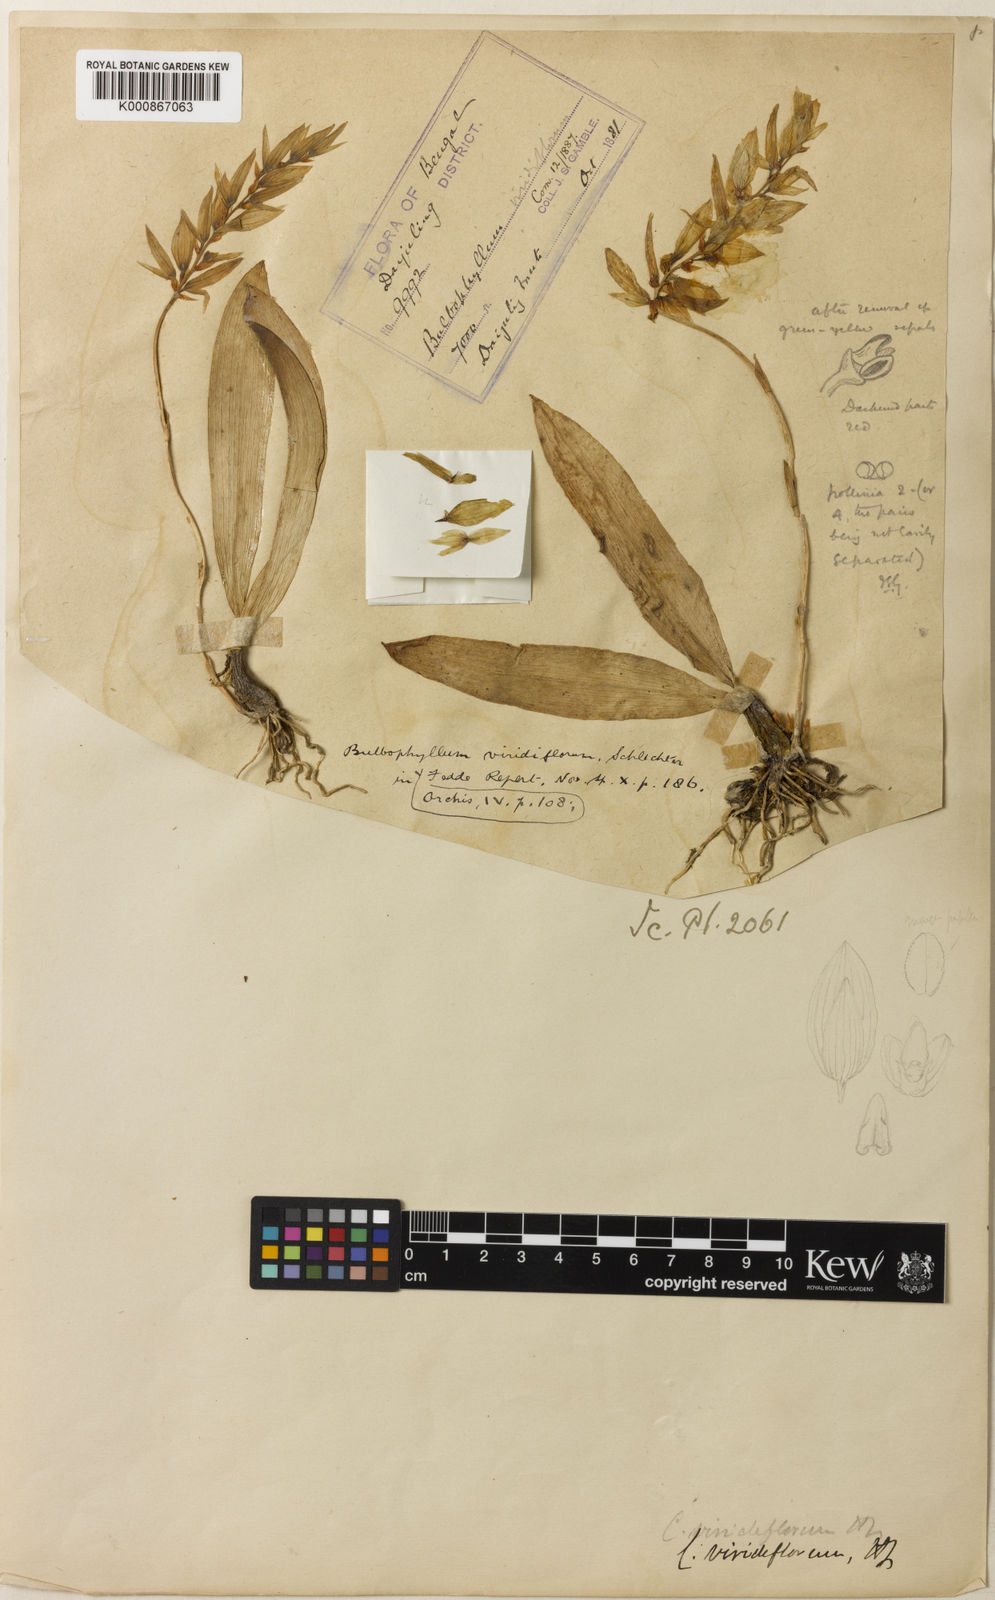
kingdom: Plantae
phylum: Tracheophyta
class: Liliopsida
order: Asparagales
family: Orchidaceae
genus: Bulbophyllum
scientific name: Bulbophyllum viridiflorum
